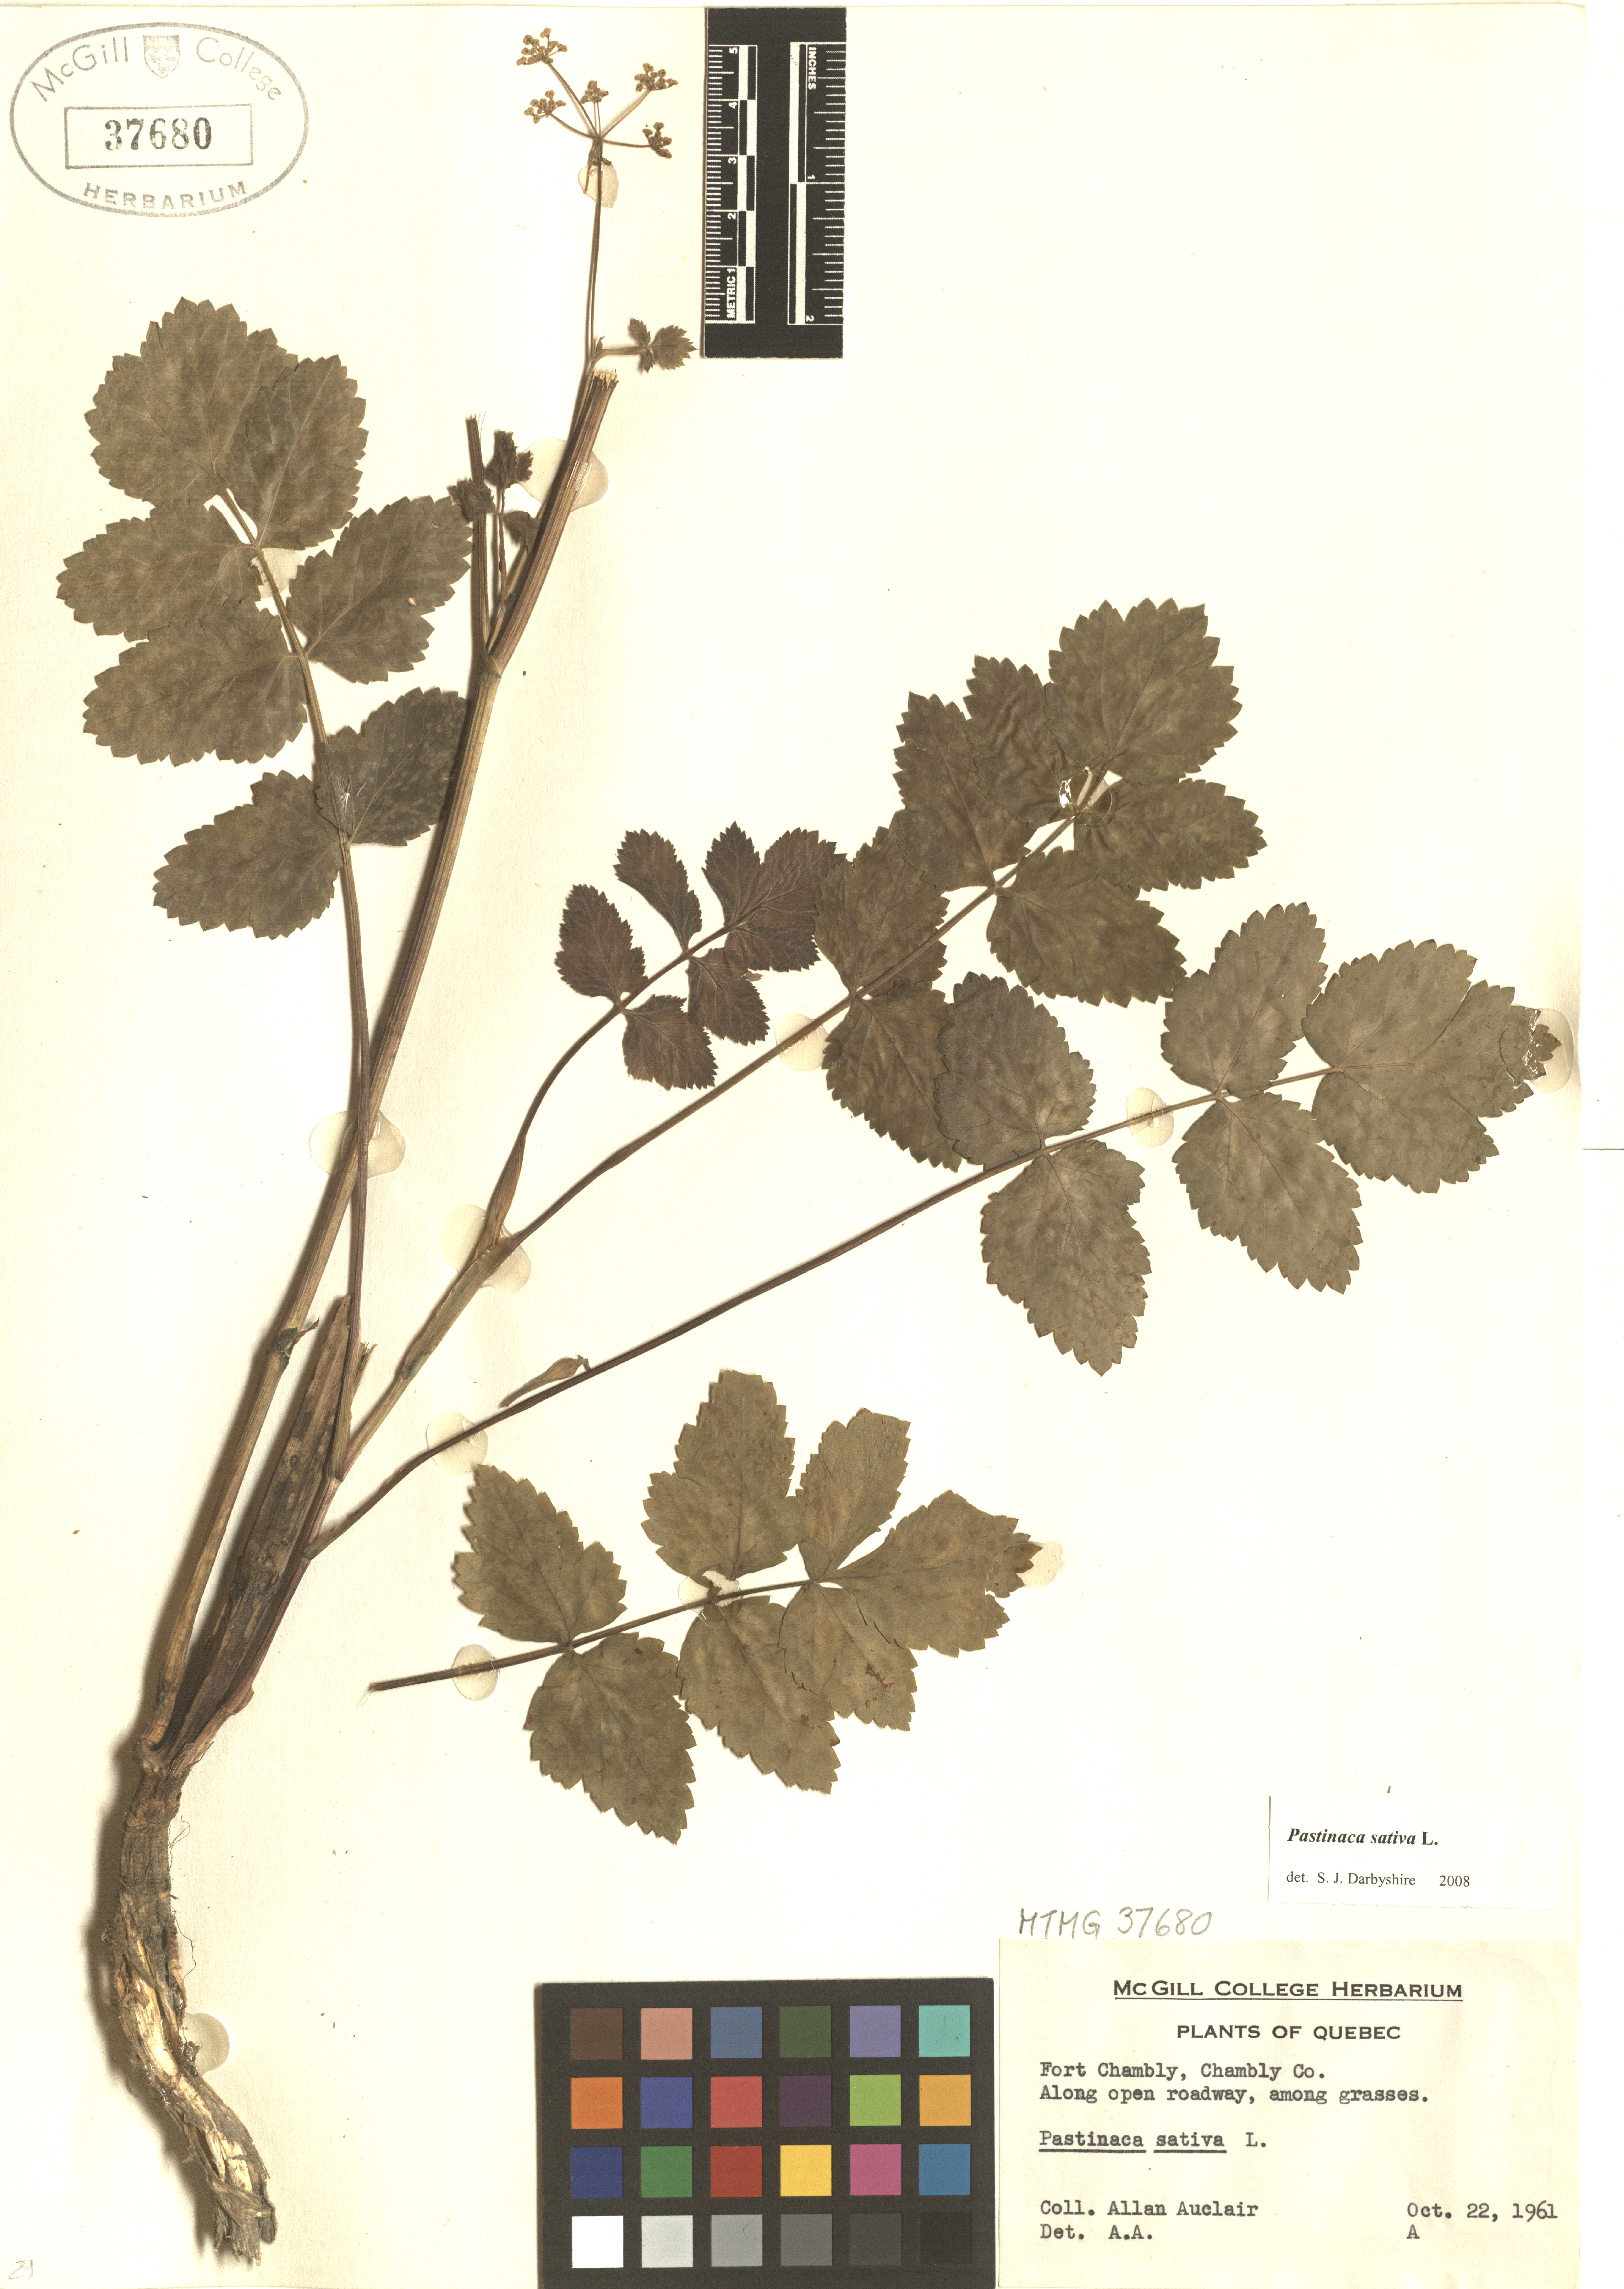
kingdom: Plantae
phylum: Tracheophyta
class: Magnoliopsida
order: Apiales
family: Apiaceae
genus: Pastinaca
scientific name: Pastinaca sativa
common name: Wild parsnip
